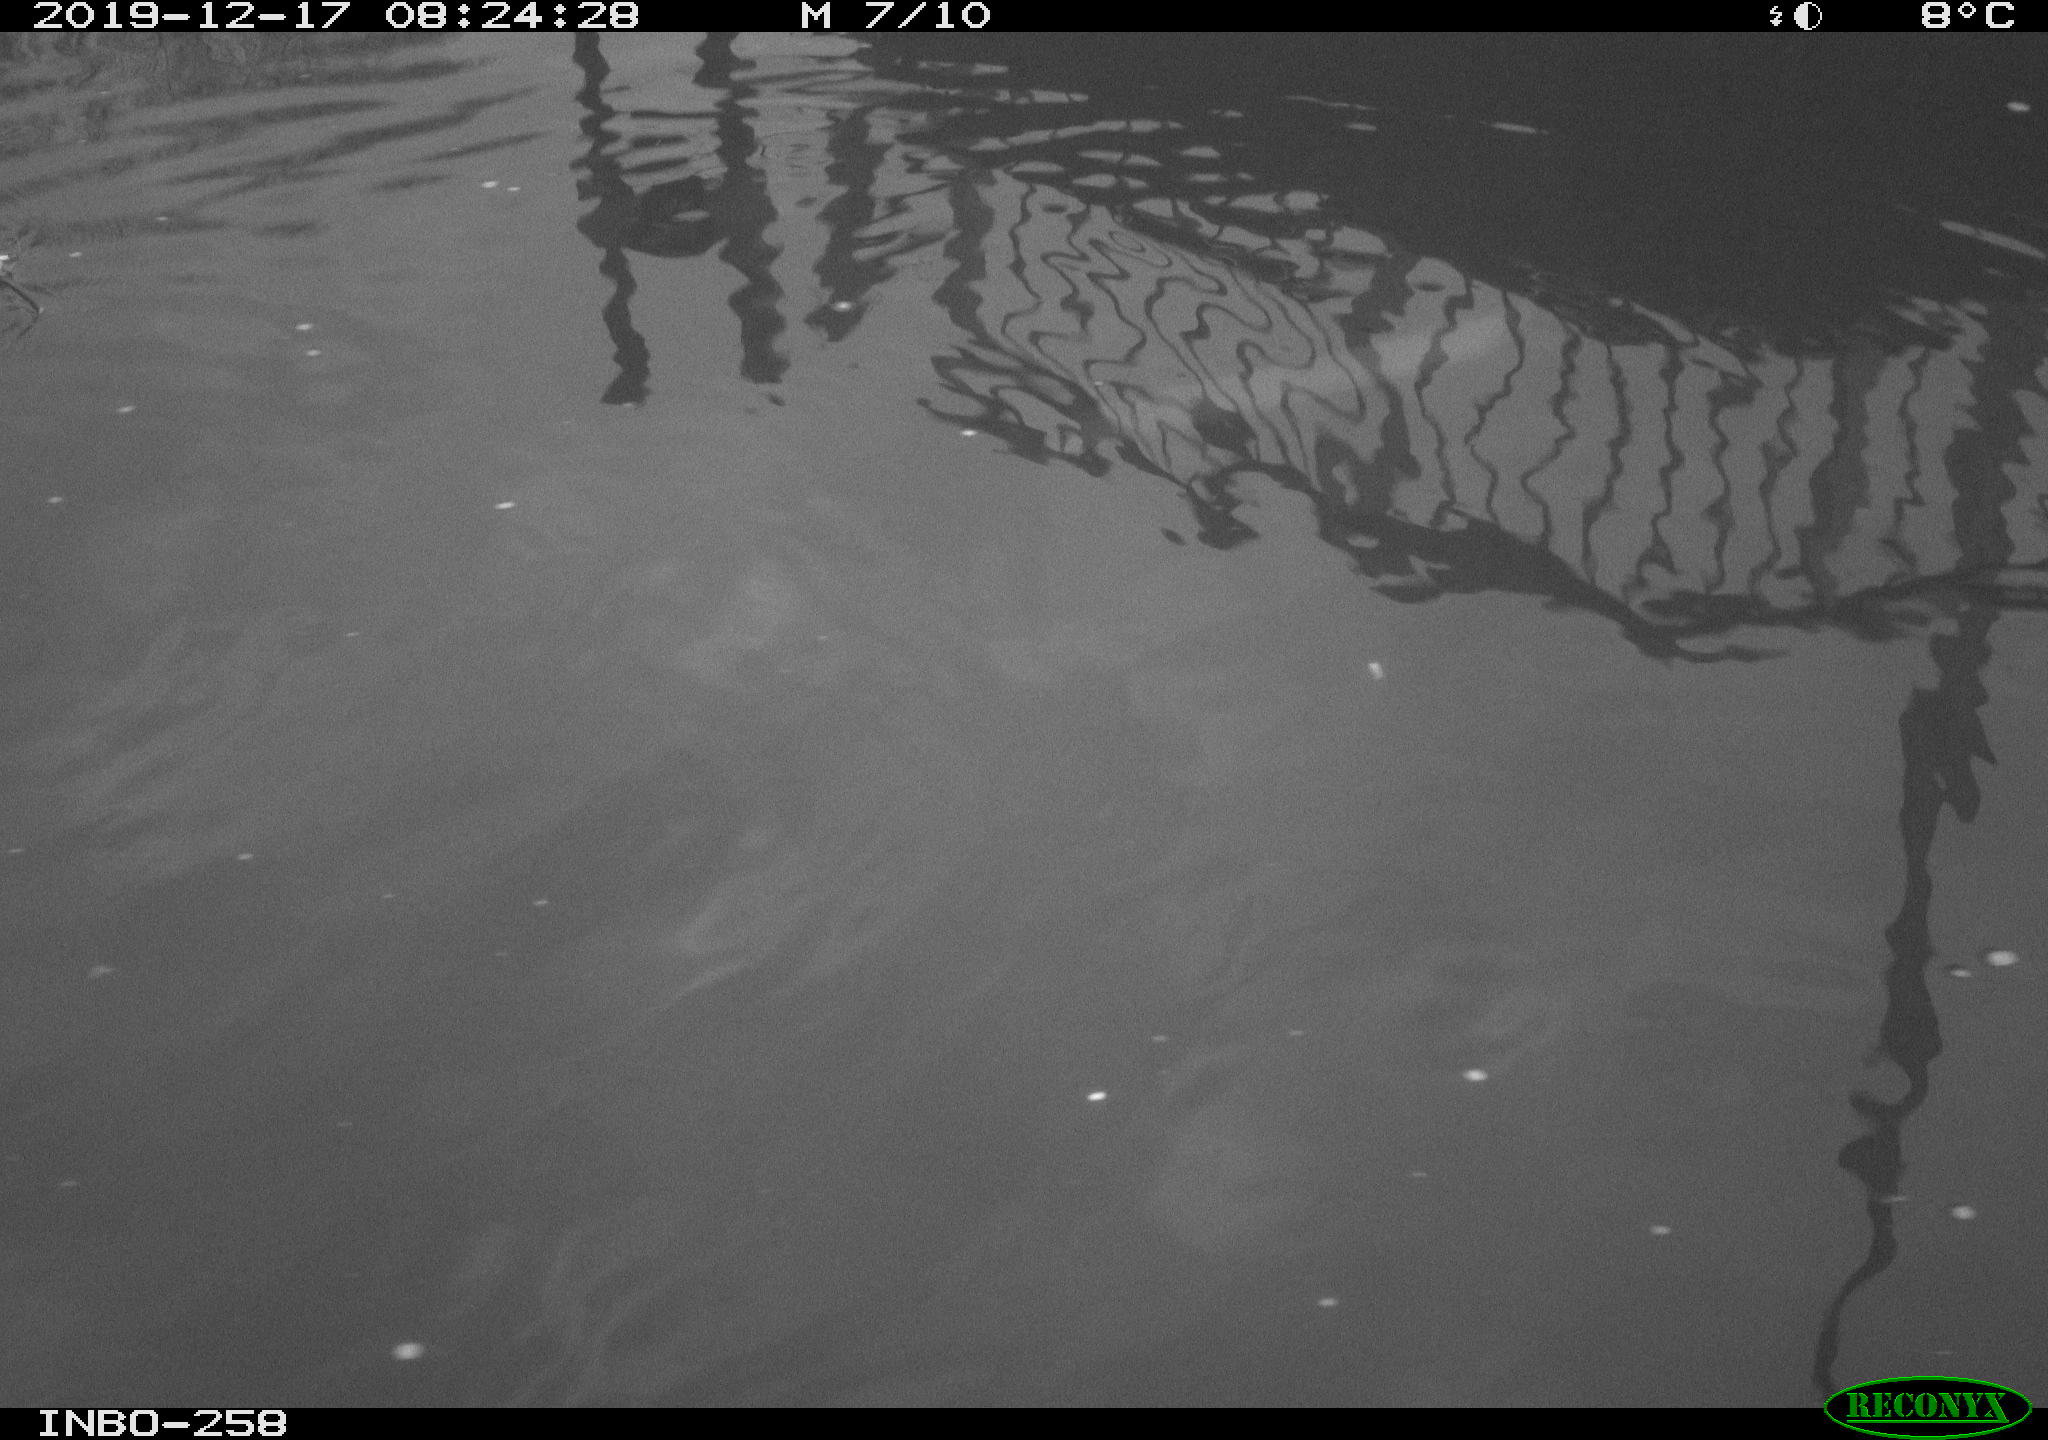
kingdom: Animalia
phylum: Chordata
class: Aves
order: Gruiformes
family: Rallidae
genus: Gallinula
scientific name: Gallinula chloropus
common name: Common moorhen
